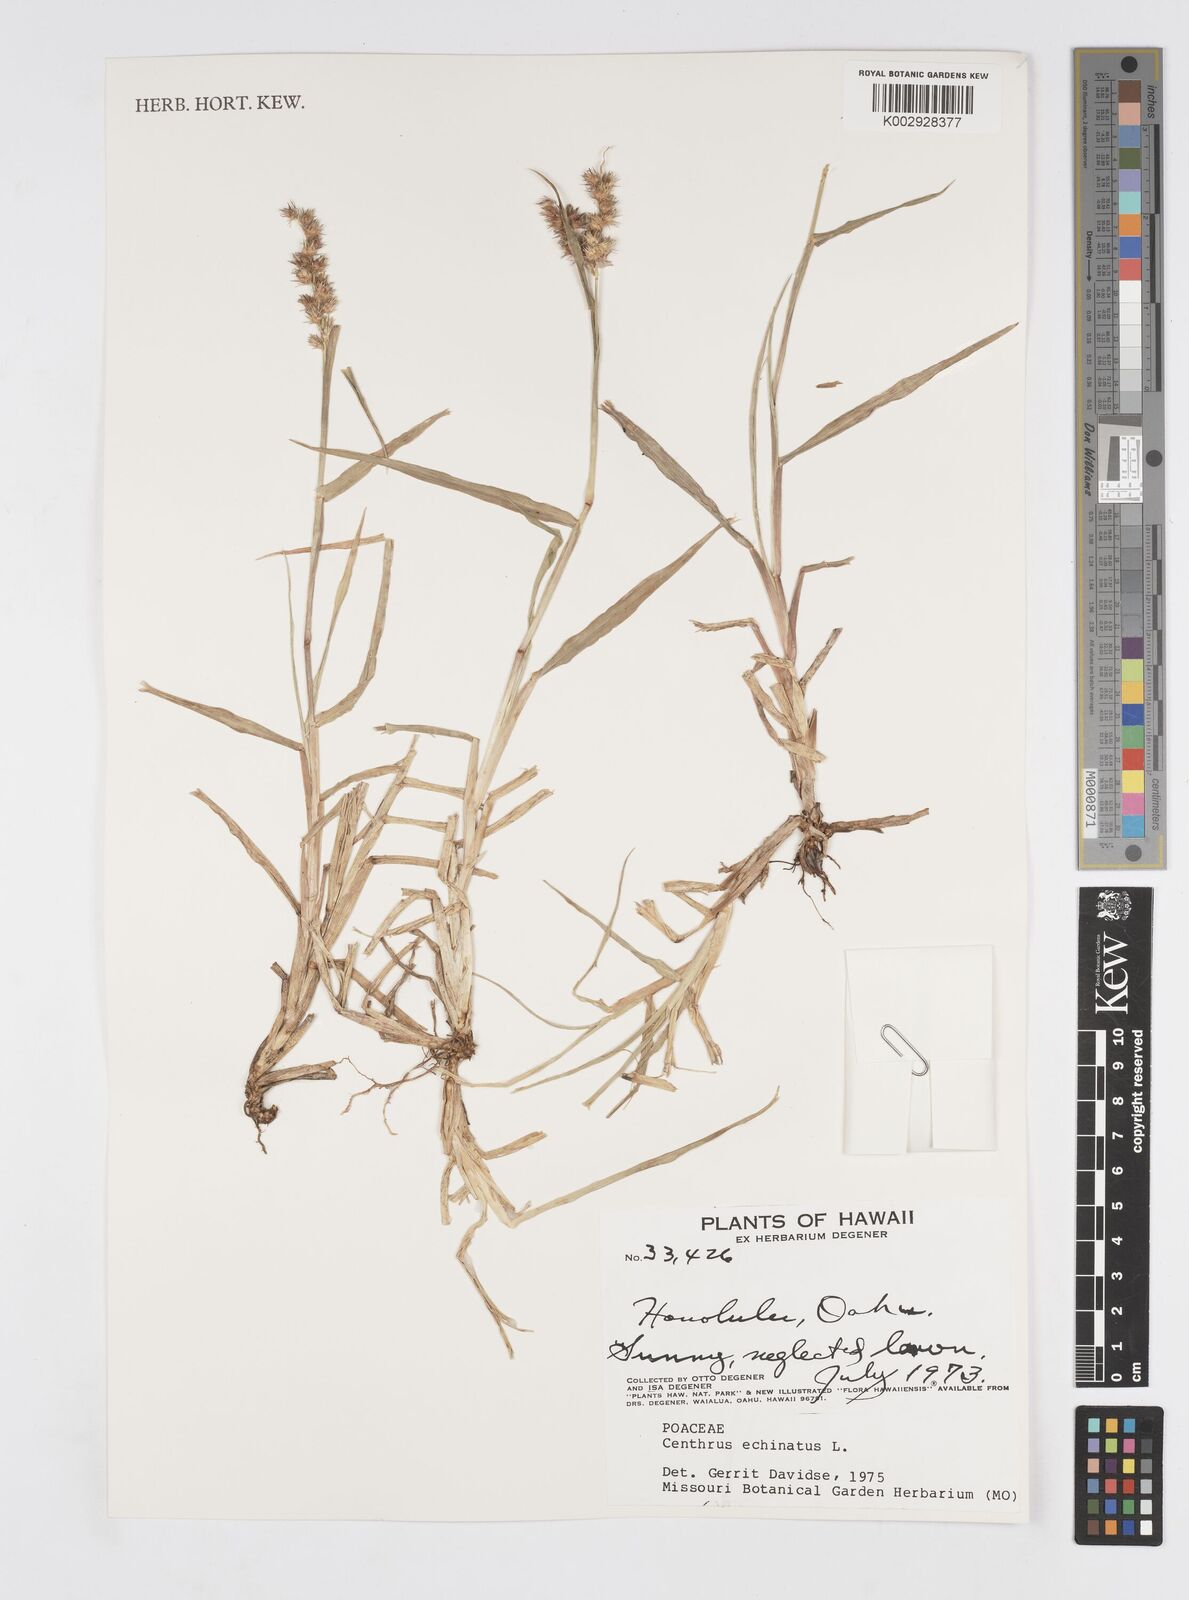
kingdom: Plantae
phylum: Tracheophyta
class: Liliopsida
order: Poales
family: Poaceae
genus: Cenchrus
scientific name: Cenchrus echinatus
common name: Southern sandbur
